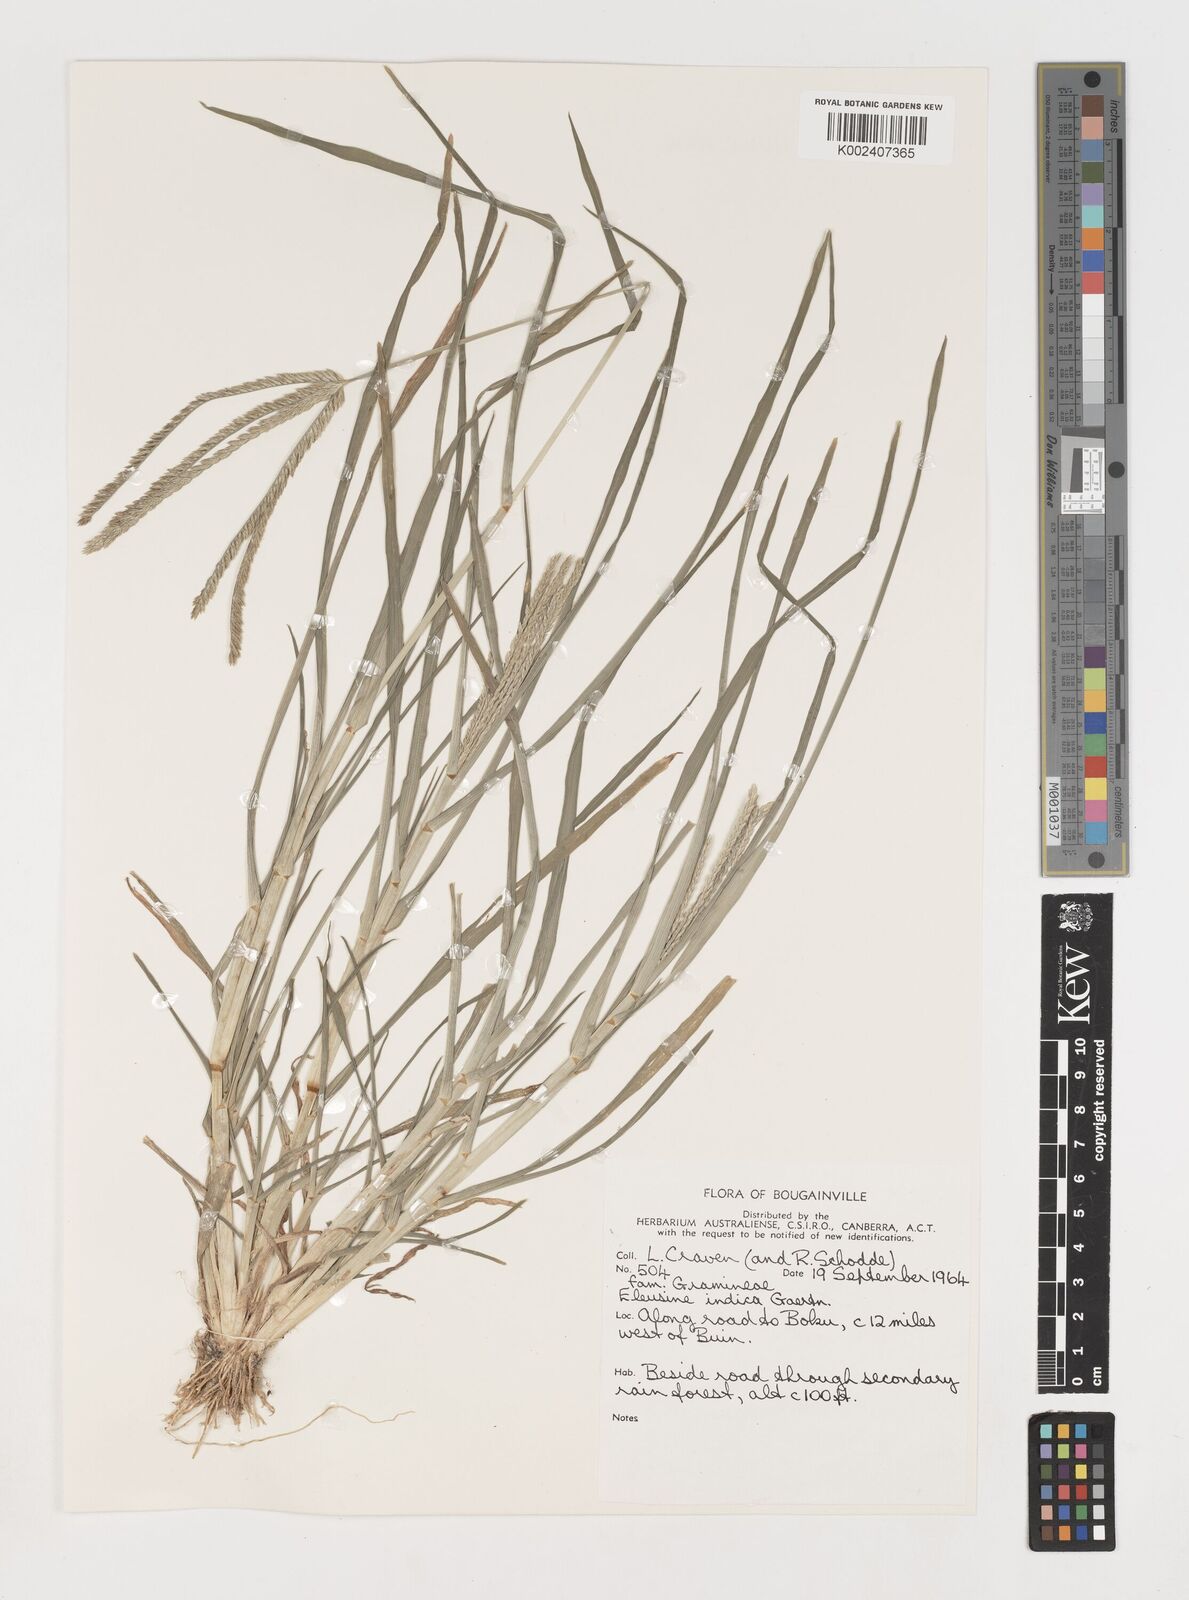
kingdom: Plantae
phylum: Tracheophyta
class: Liliopsida
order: Poales
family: Poaceae
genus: Eleusine
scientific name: Eleusine indica
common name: Yard-grass
